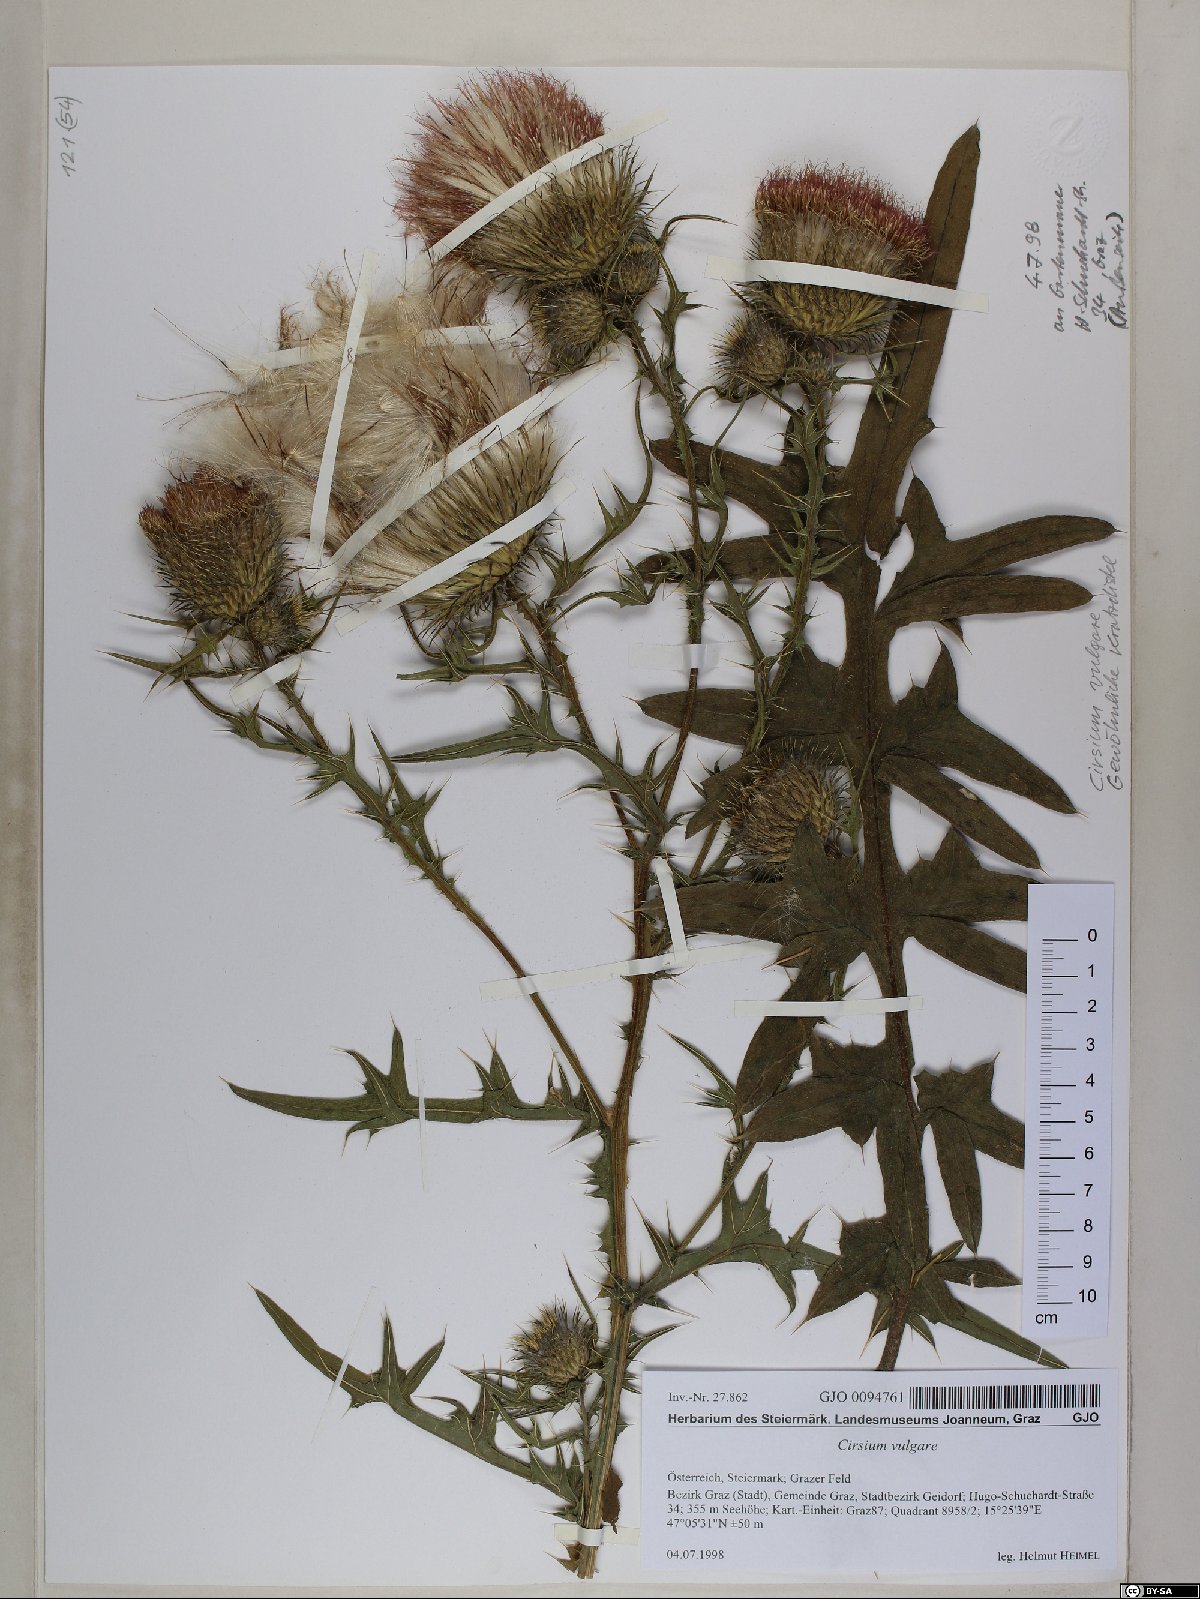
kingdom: Plantae
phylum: Tracheophyta
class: Magnoliopsida
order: Asterales
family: Asteraceae
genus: Cirsium
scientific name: Cirsium vulgare
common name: Bull thistle
